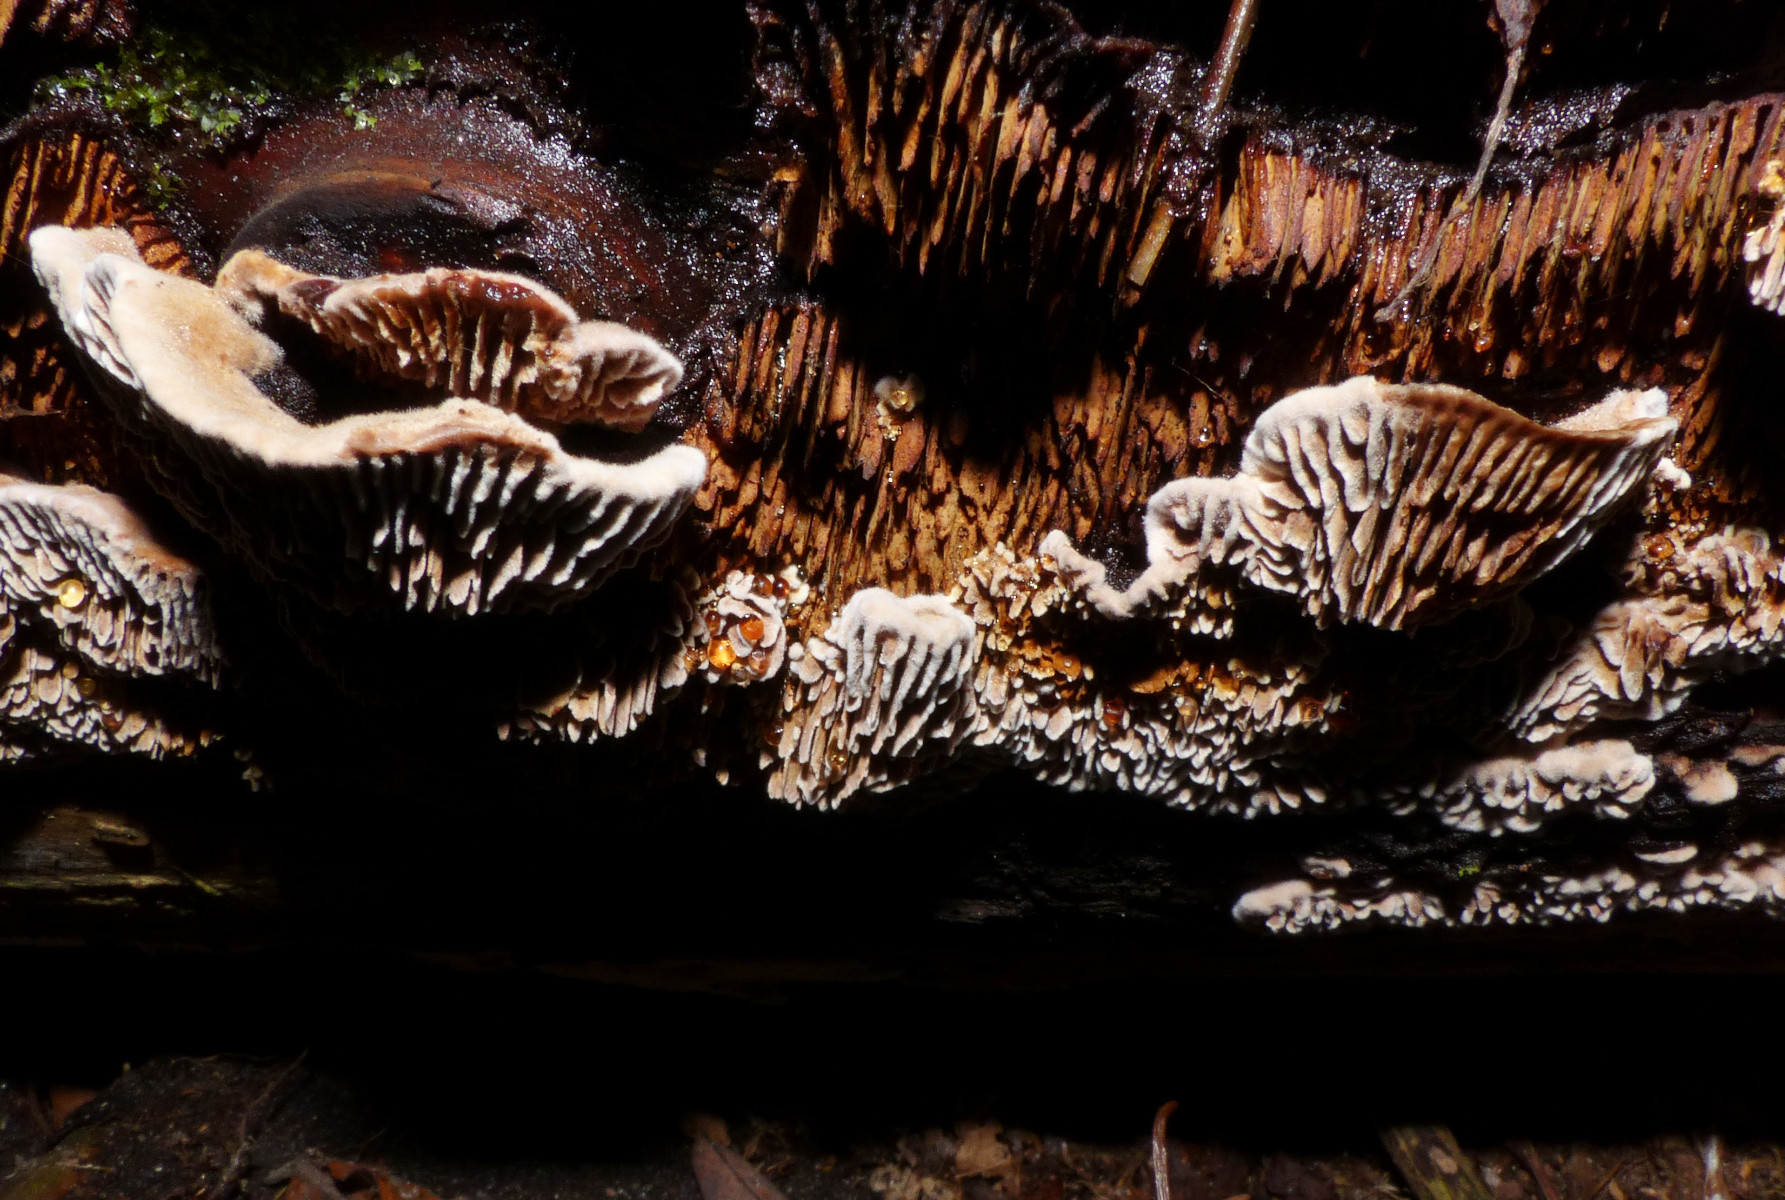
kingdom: Fungi
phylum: Basidiomycota
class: Agaricomycetes
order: Gloeophyllales
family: Gloeophyllaceae
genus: Gloeophyllum
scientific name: Gloeophyllum abietinum
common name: gran-korkhat
